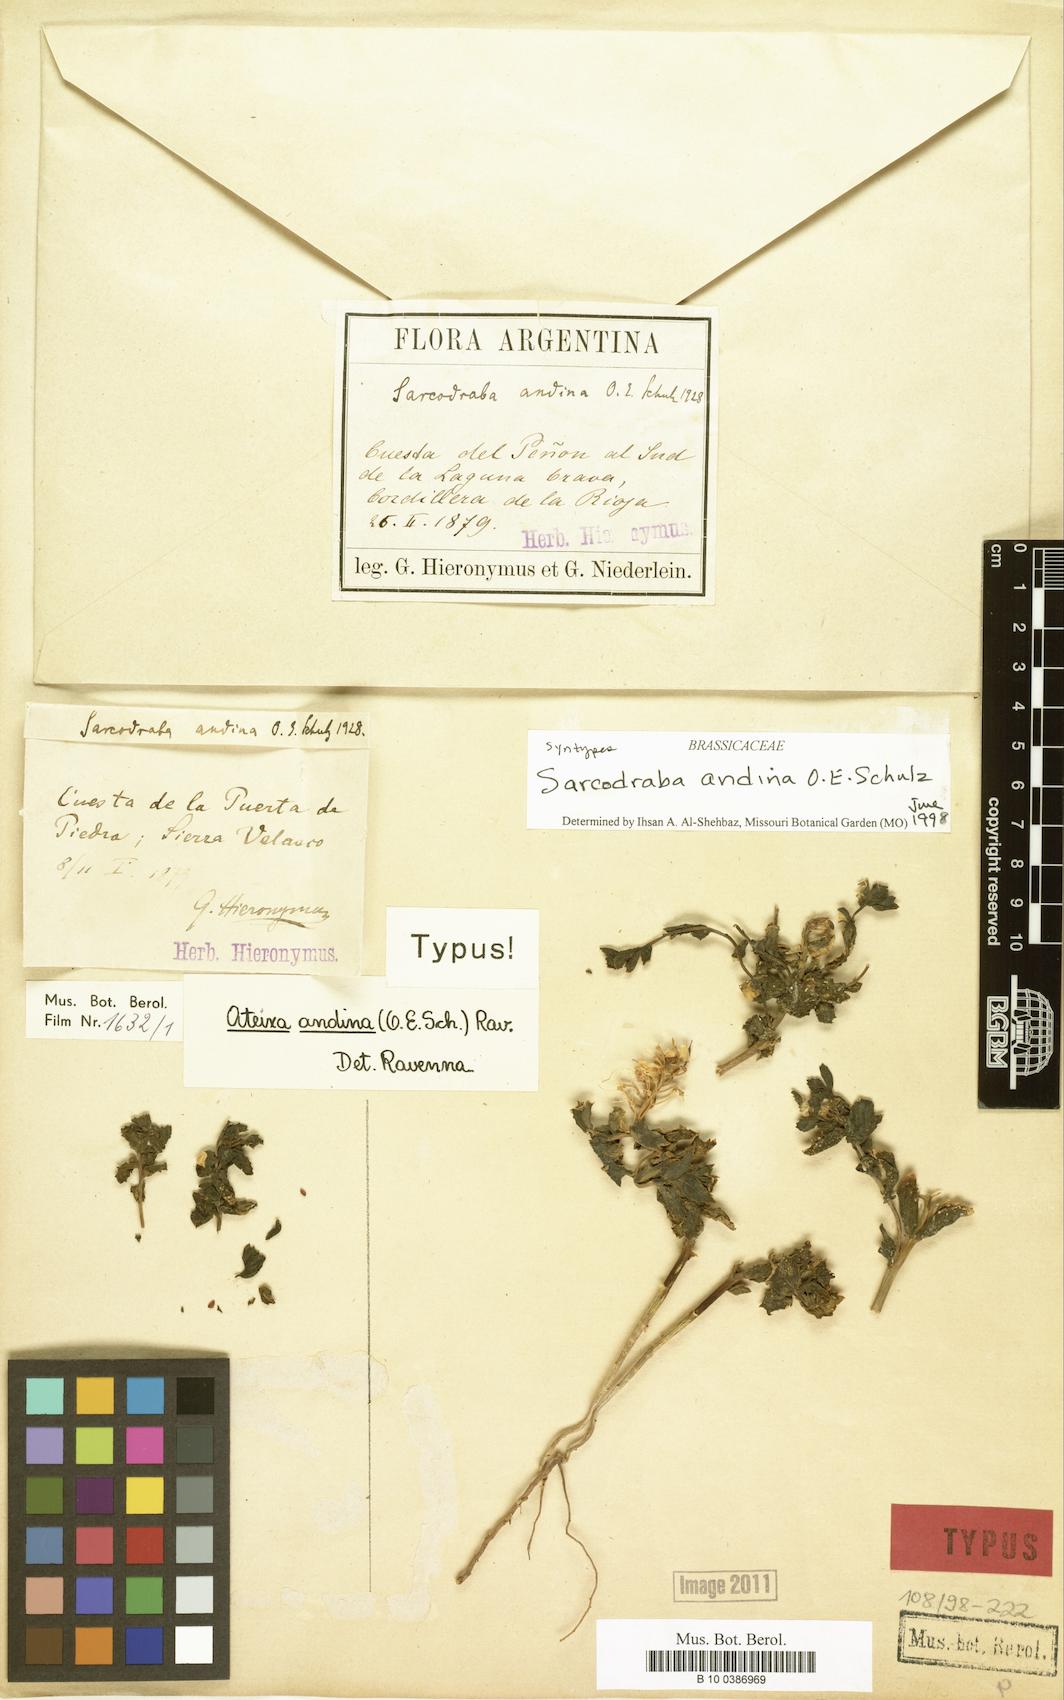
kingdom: Plantae
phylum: Tracheophyta
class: Magnoliopsida
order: Brassicales
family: Brassicaceae
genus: Sarcodraba
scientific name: Sarcodraba andina
